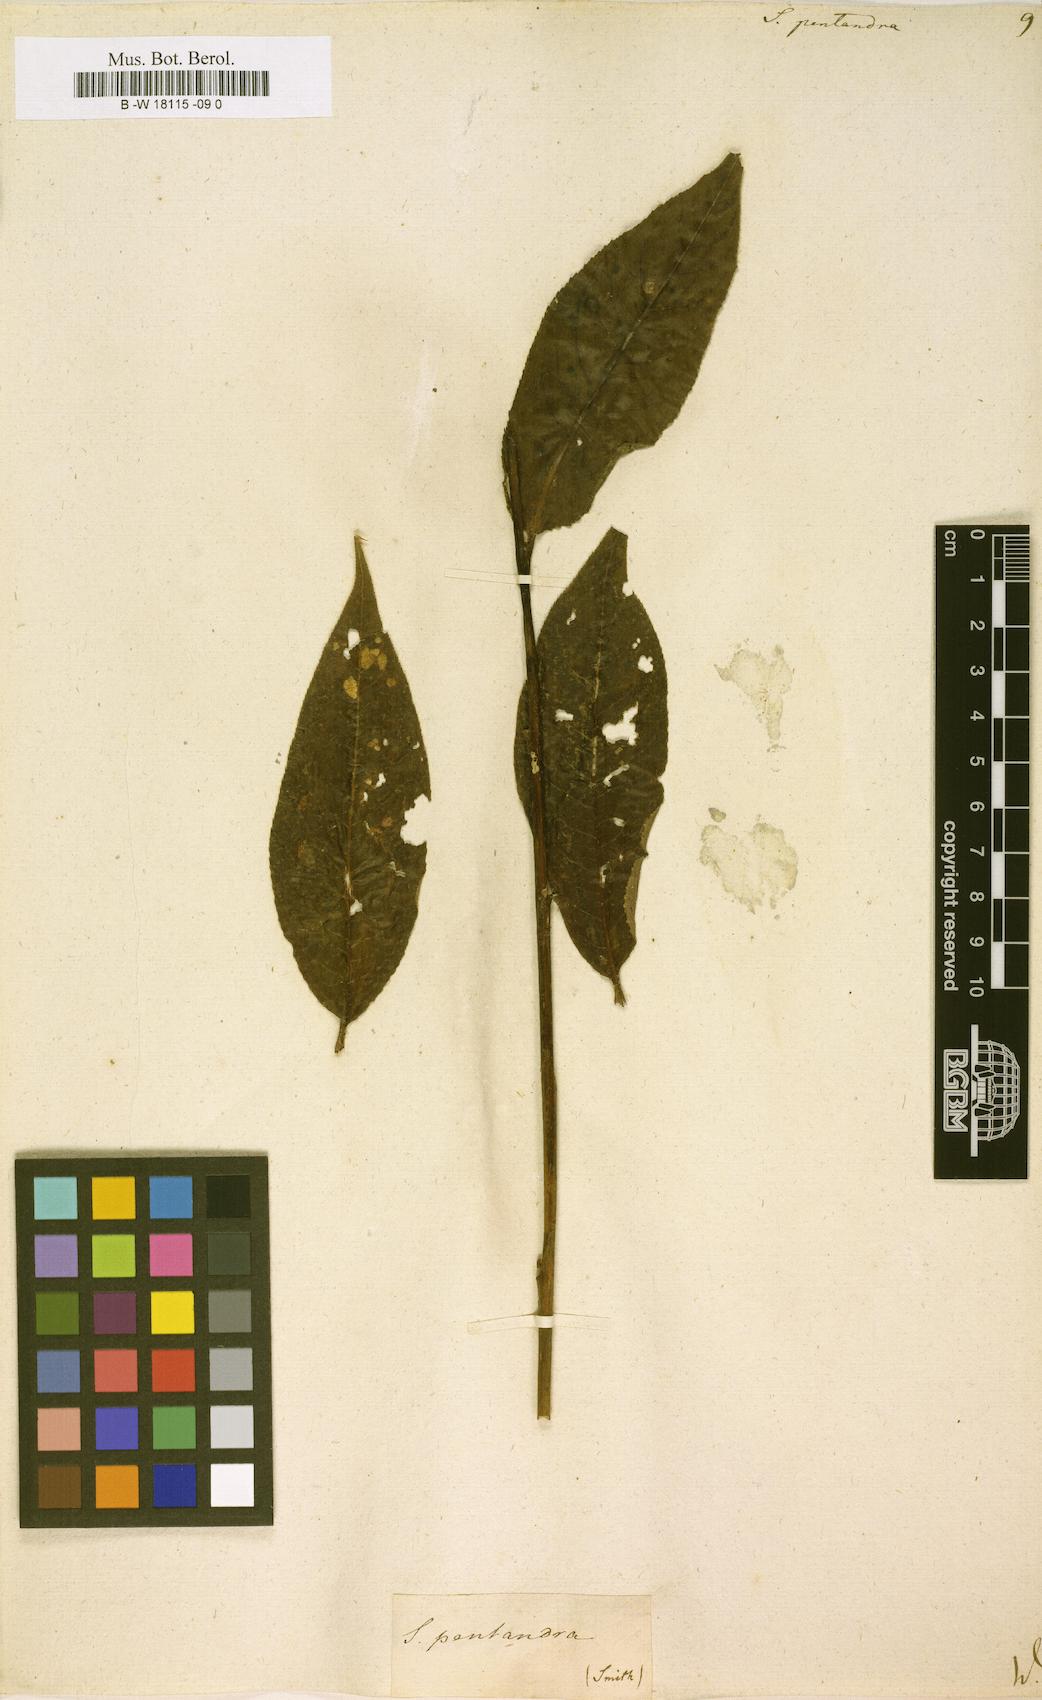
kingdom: Plantae
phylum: Tracheophyta
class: Magnoliopsida
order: Malpighiales
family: Salicaceae
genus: Salix
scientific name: Salix pentandra
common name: Bay willow
